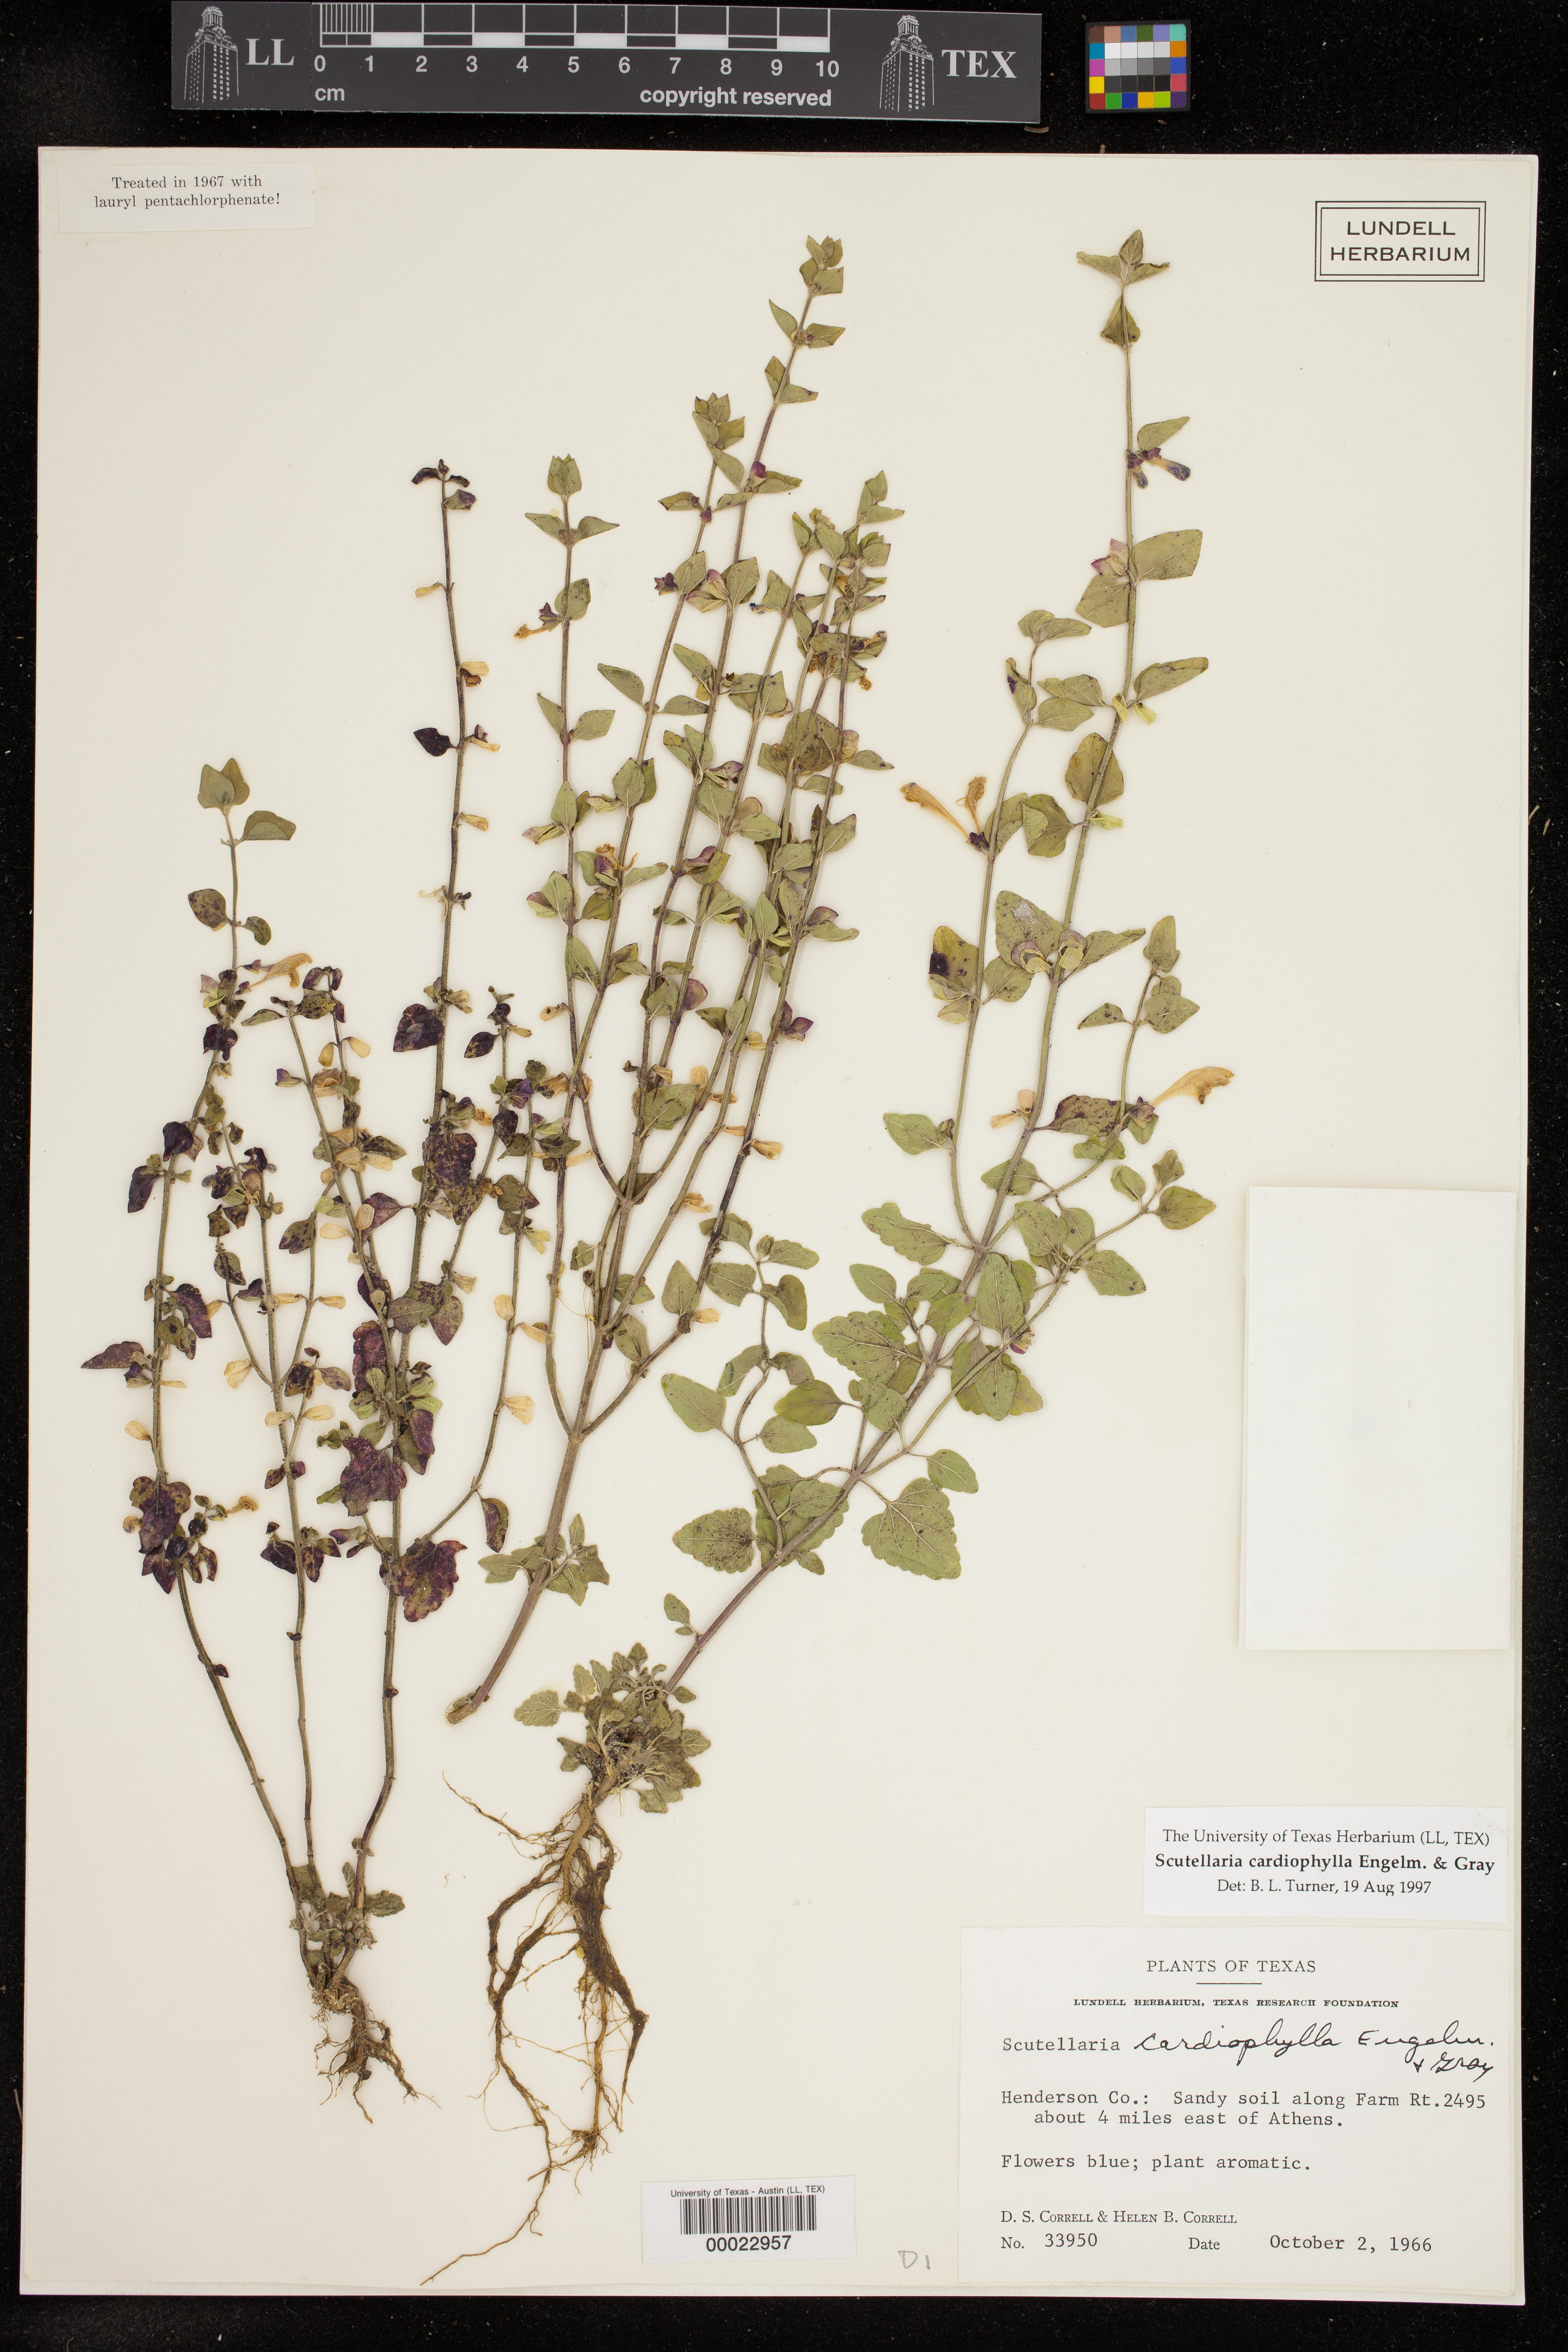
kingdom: Plantae
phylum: Tracheophyta
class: Magnoliopsida
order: Lamiales
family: Lamiaceae
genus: Scutellaria
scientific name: Scutellaria cardiophylla
